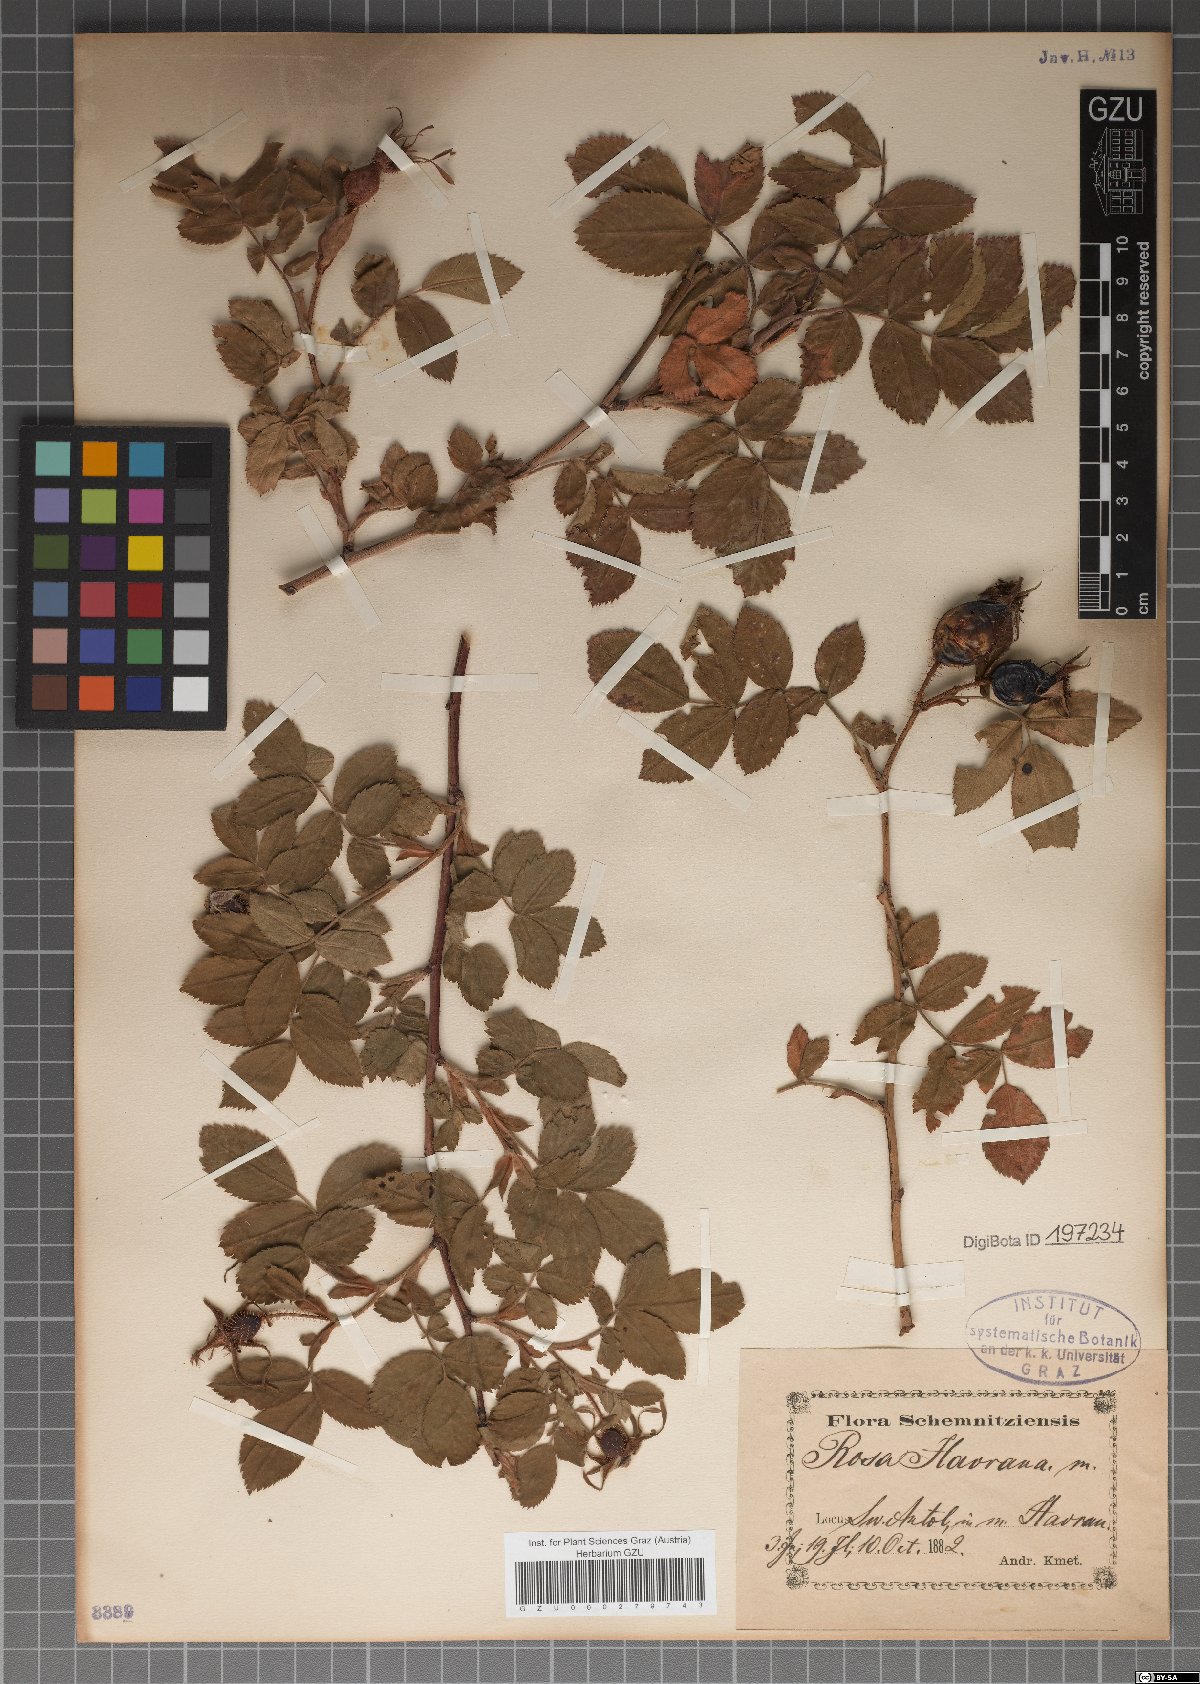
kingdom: Plantae
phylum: Tracheophyta
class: Magnoliopsida
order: Rosales
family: Rosaceae
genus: Rosa
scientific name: Rosa pseudoscabriuscula
